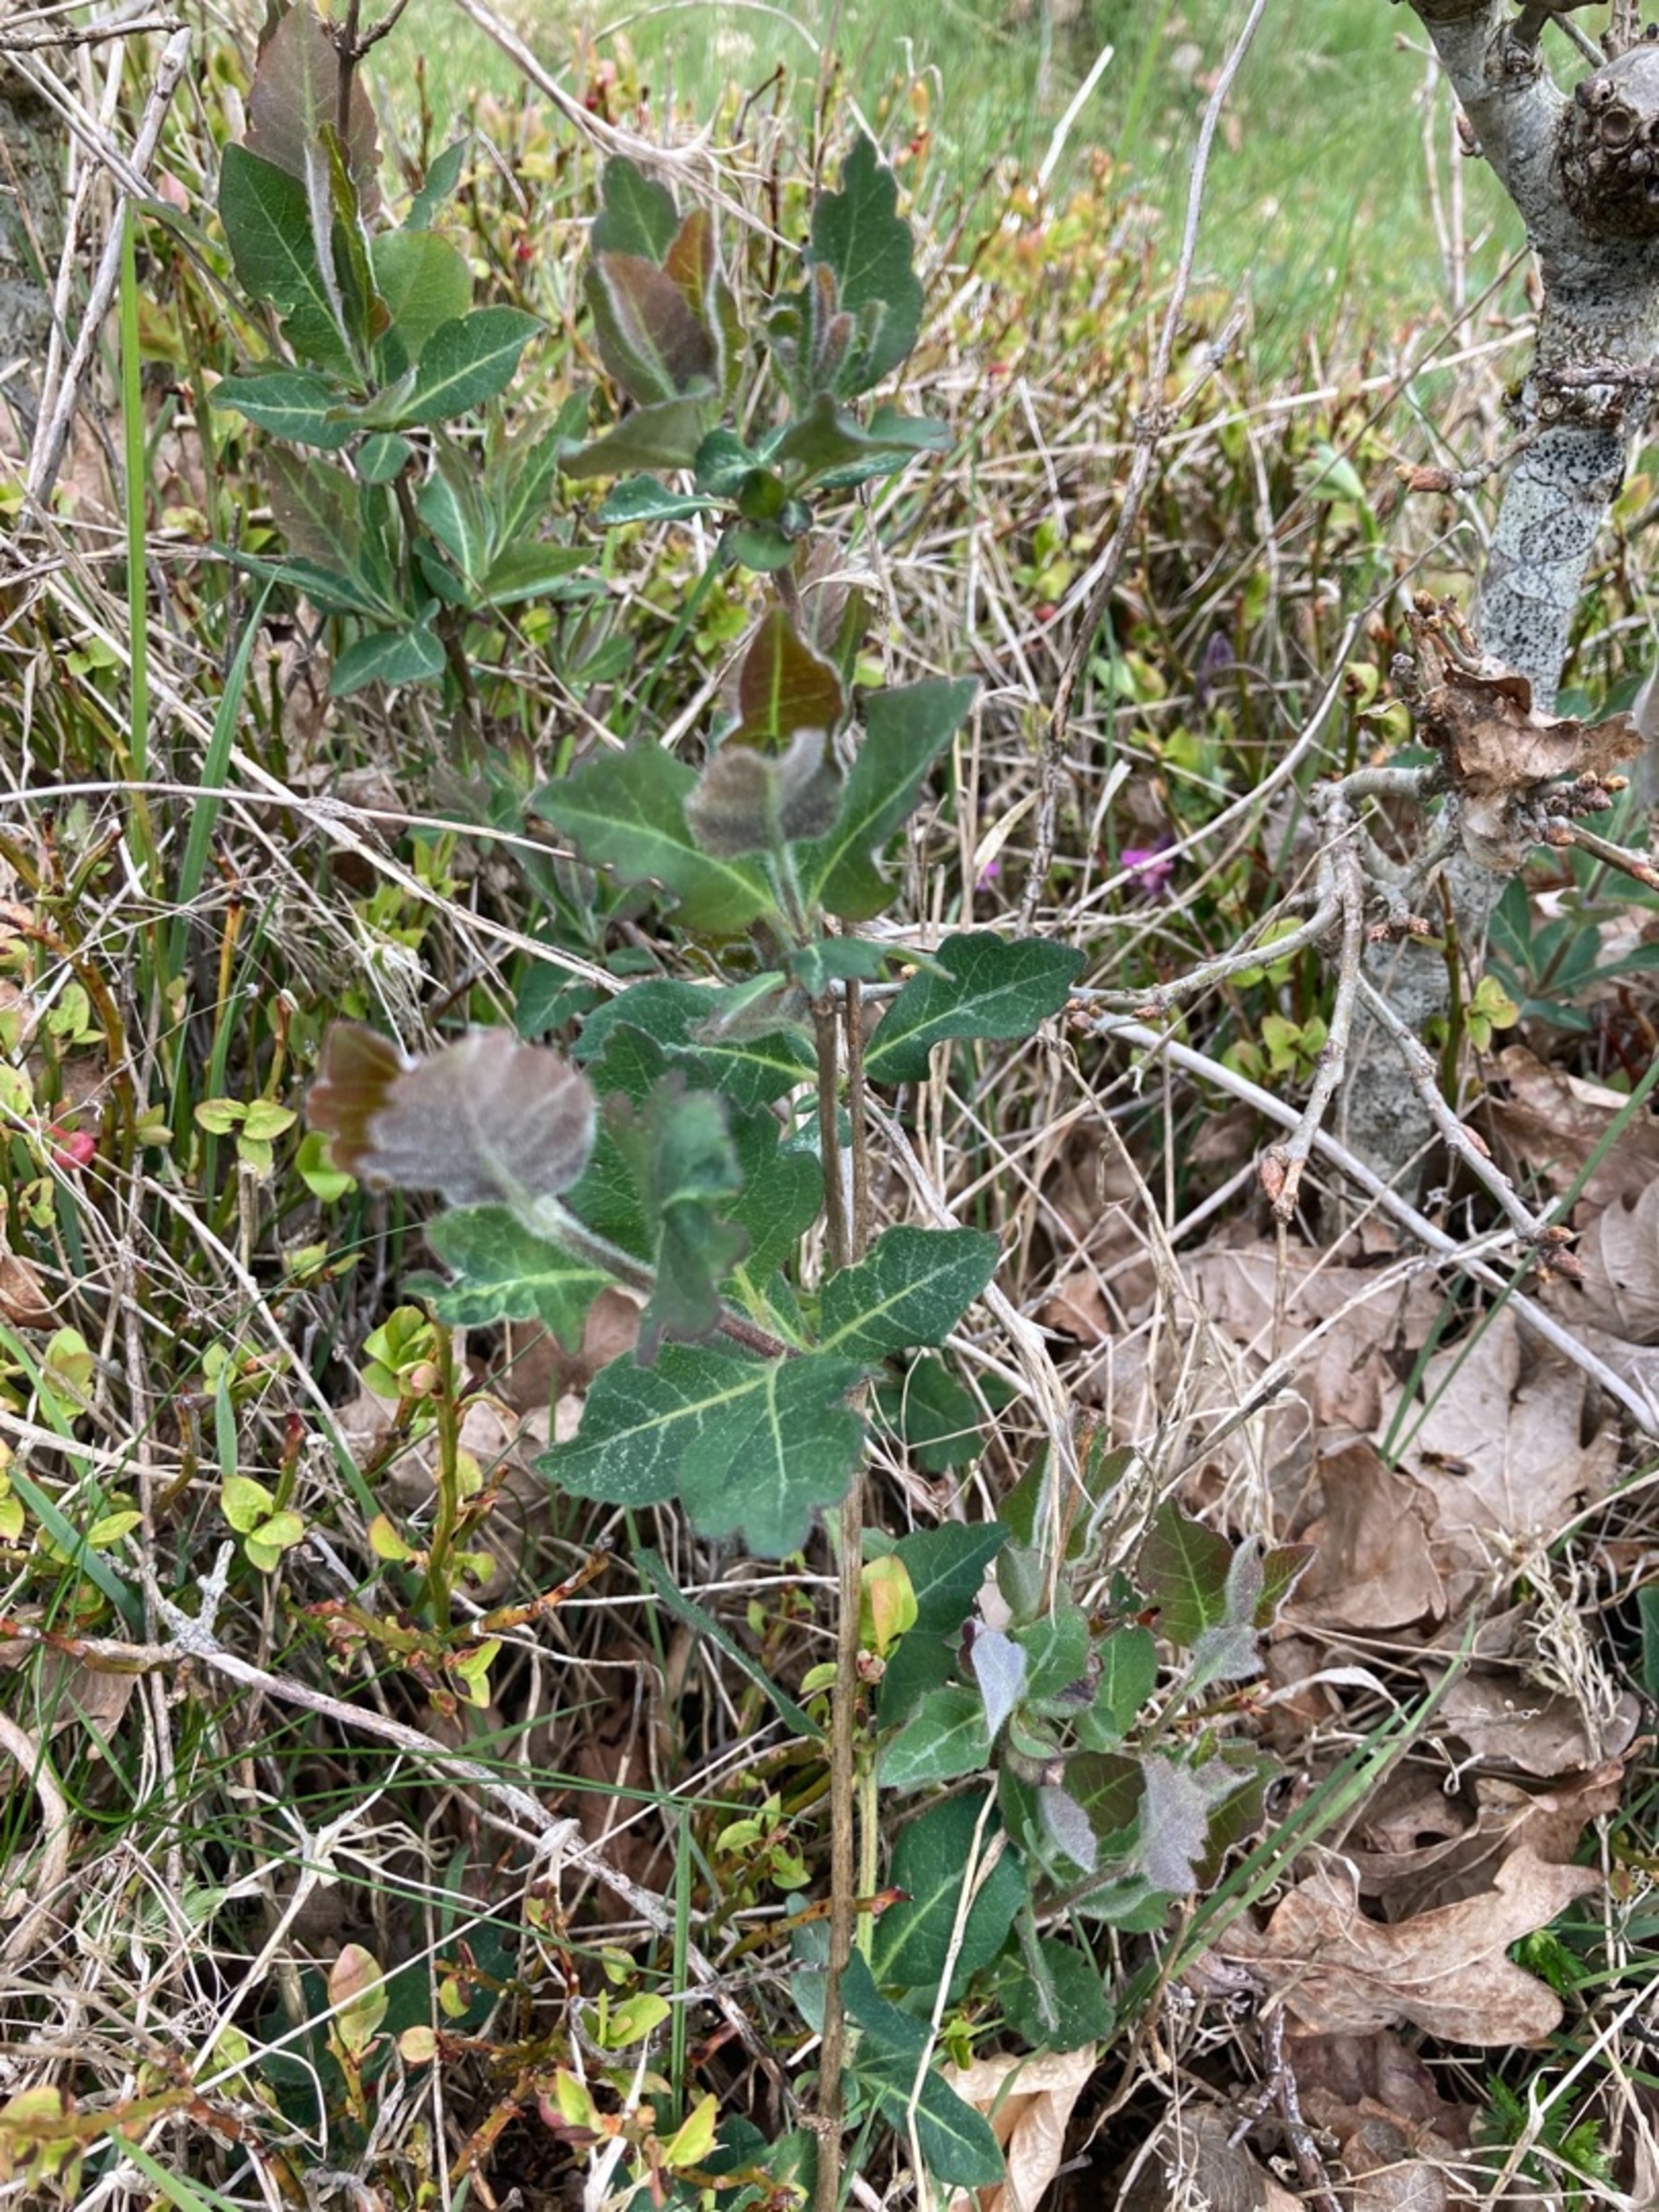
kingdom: Plantae
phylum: Tracheophyta
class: Magnoliopsida
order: Dipsacales
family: Caprifoliaceae
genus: Lonicera
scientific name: Lonicera periclymenum
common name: Almindelig gedeblad
